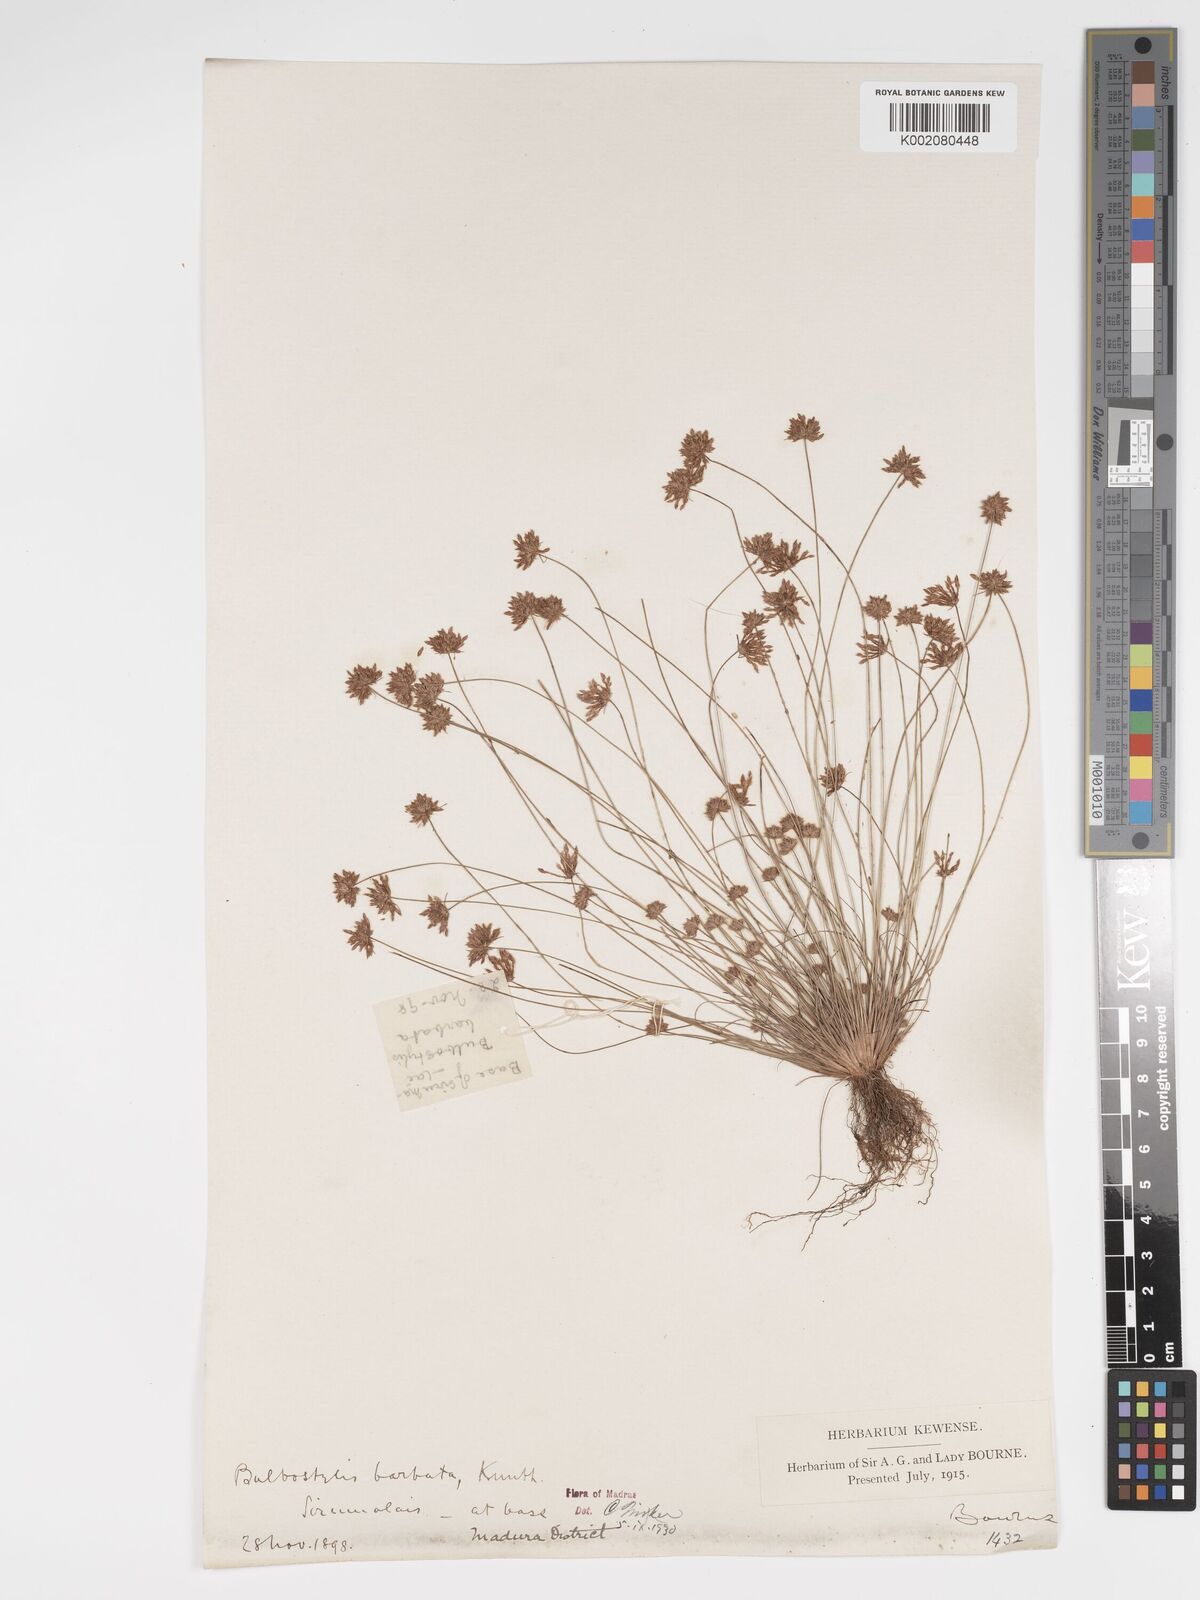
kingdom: Plantae
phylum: Tracheophyta
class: Liliopsida
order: Poales
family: Cyperaceae
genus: Bulbostylis
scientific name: Bulbostylis barbata
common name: Watergrass
